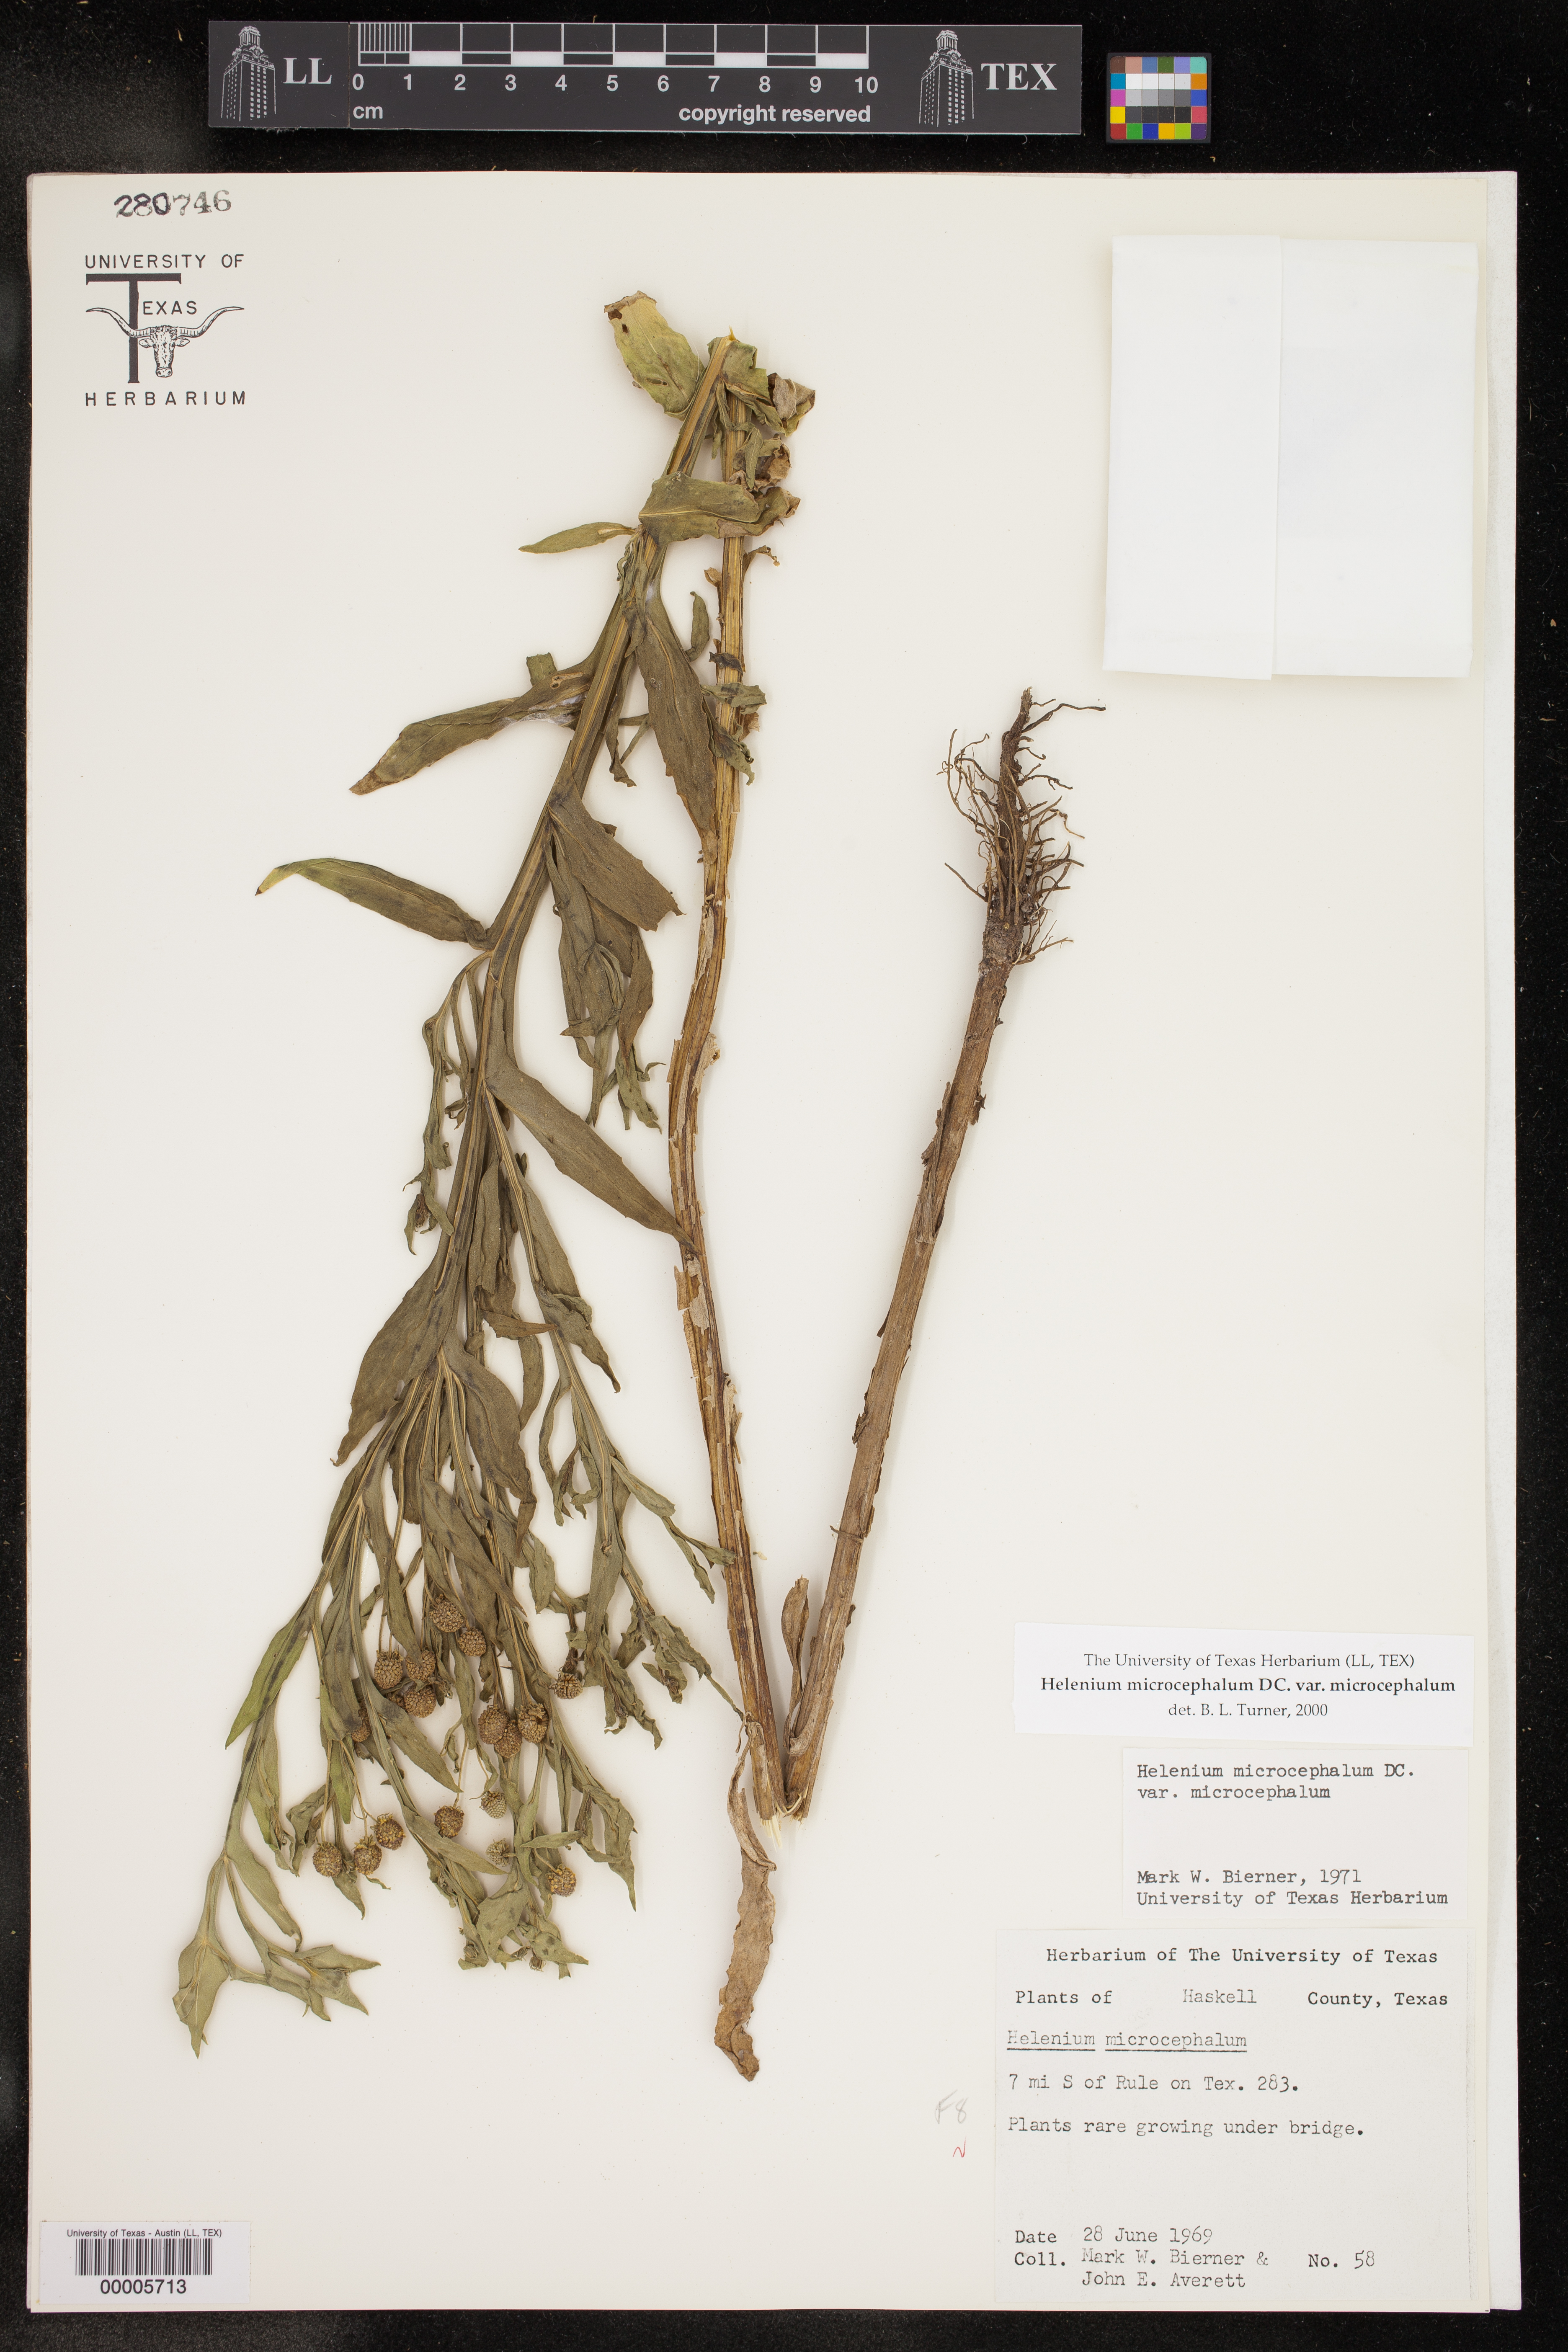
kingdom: Plantae
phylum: Tracheophyta
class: Magnoliopsida
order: Asterales
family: Asteraceae
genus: Helenium
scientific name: Helenium microcephalum
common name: Smallhead sneezeweed
